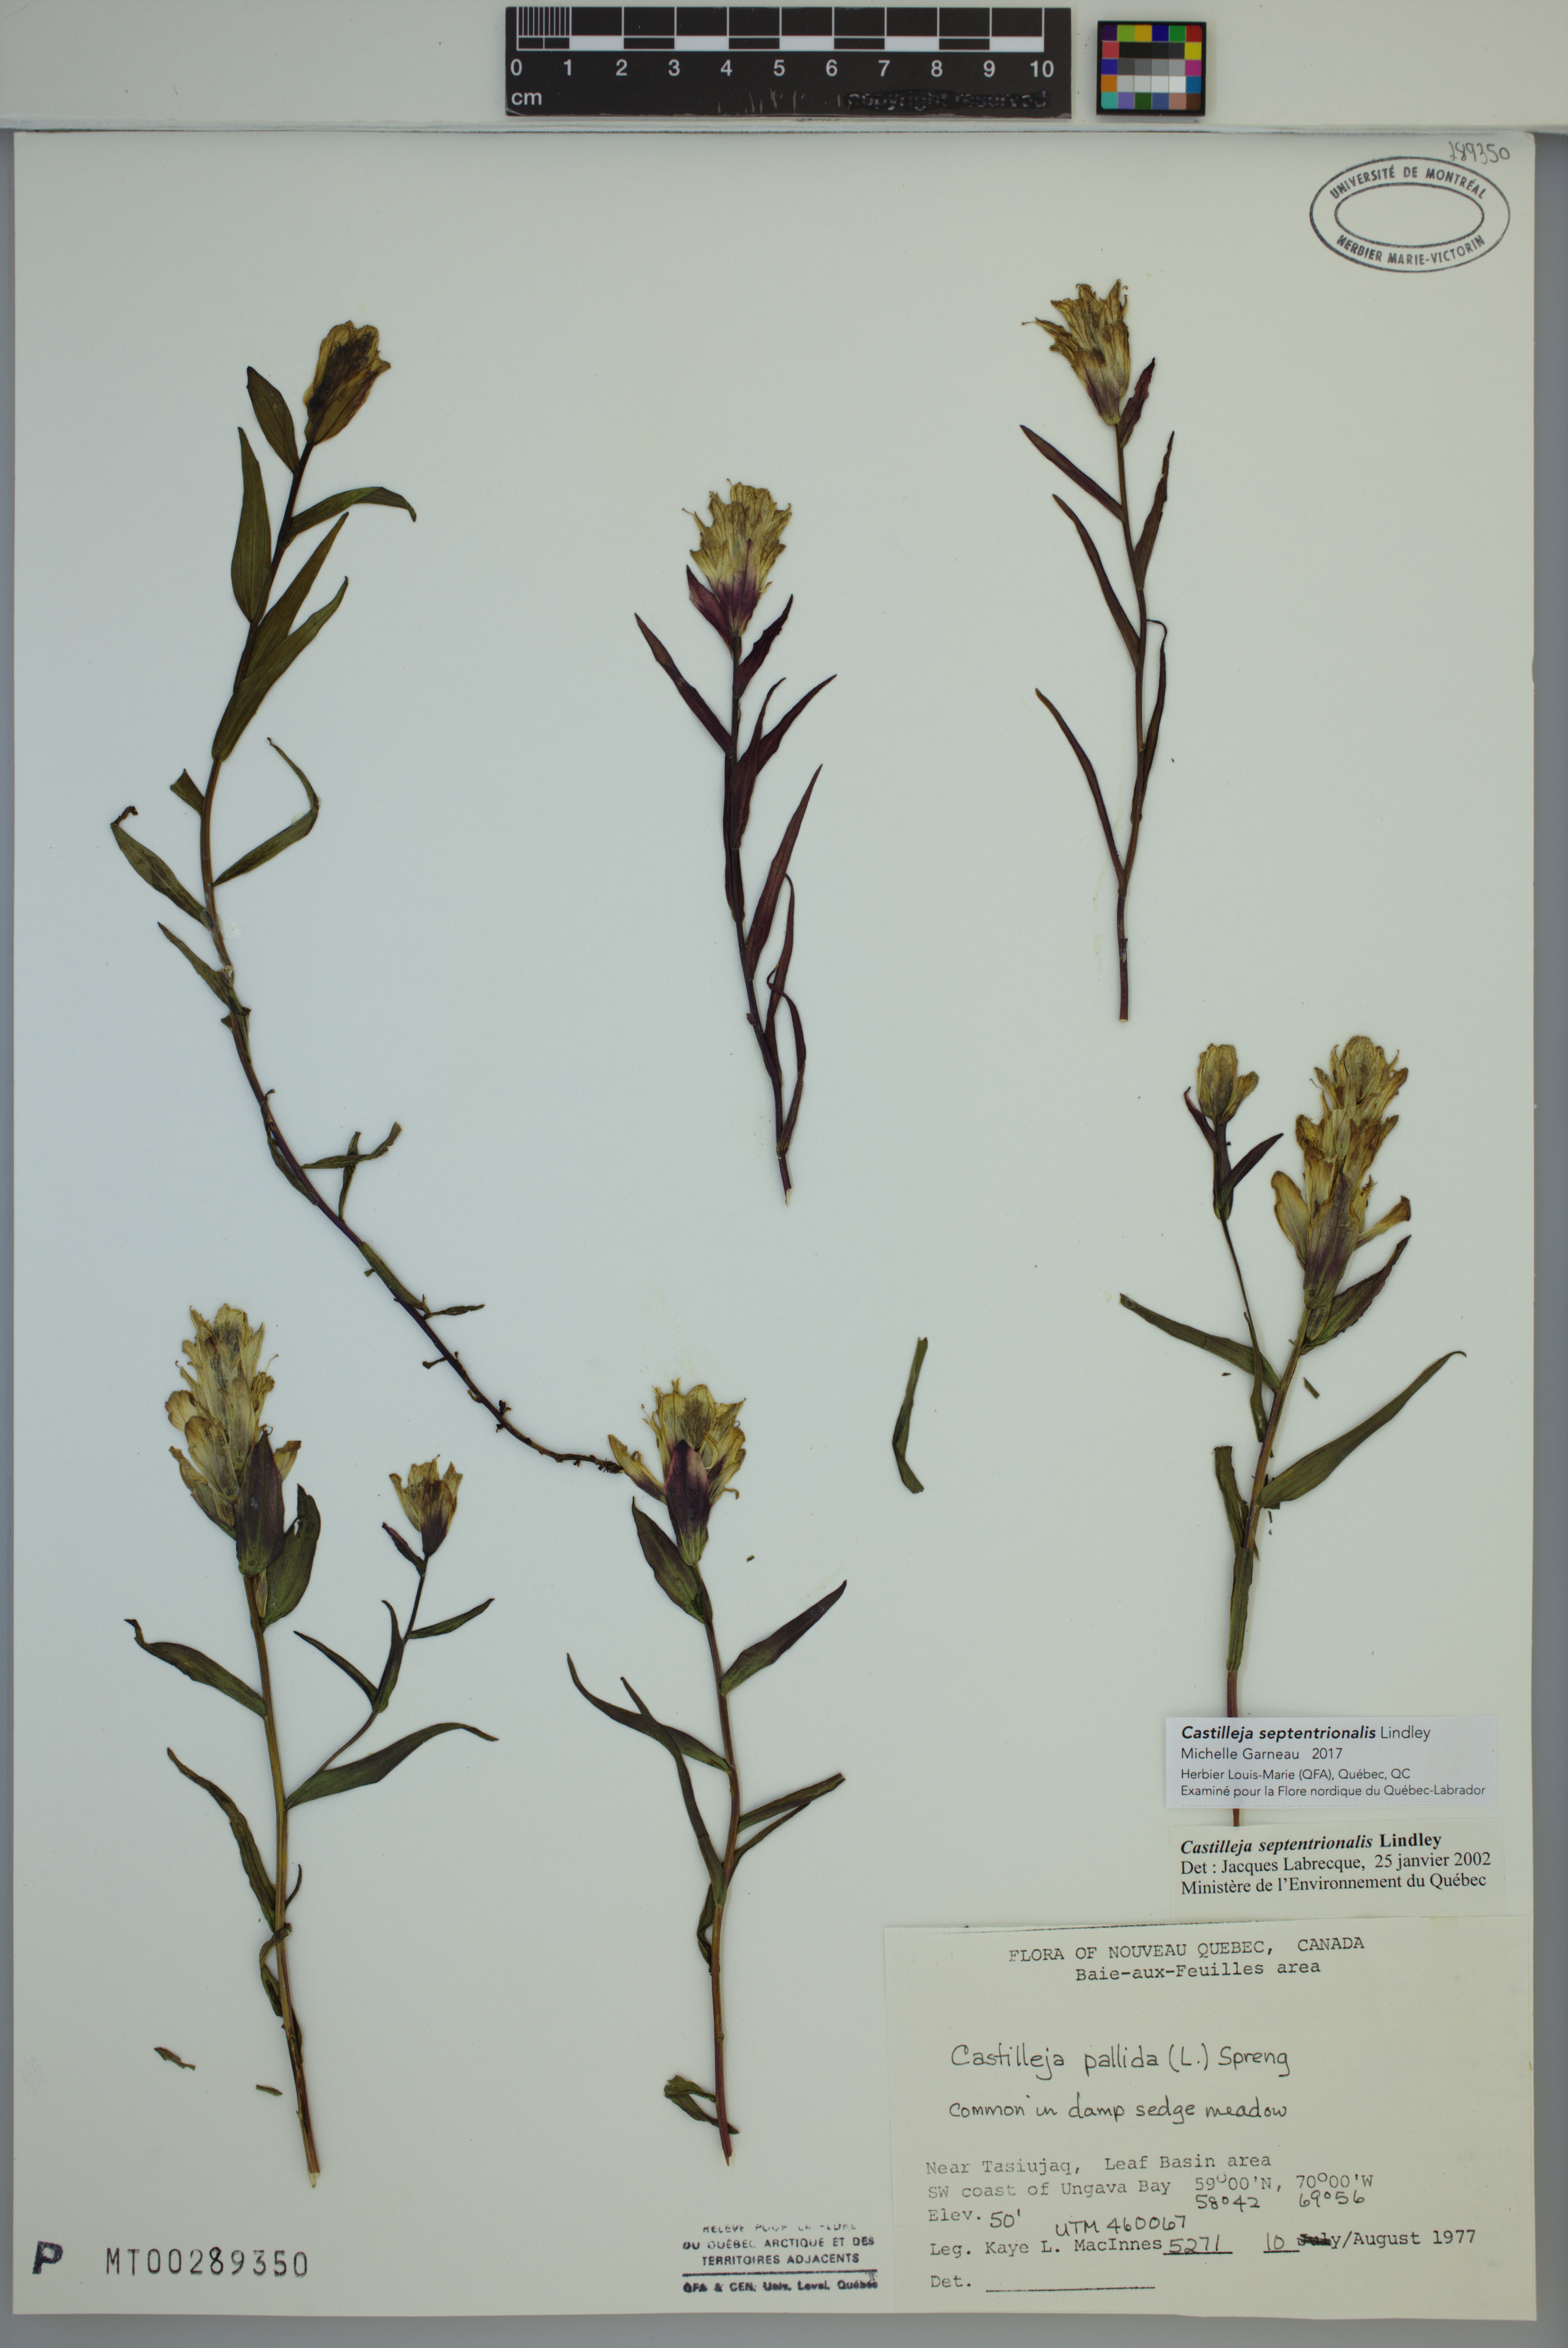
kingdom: Plantae
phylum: Tracheophyta
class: Magnoliopsida
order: Lamiales
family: Orobanchaceae
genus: Castilleja
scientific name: Castilleja septentrionalis
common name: Northeastern paintbrush
